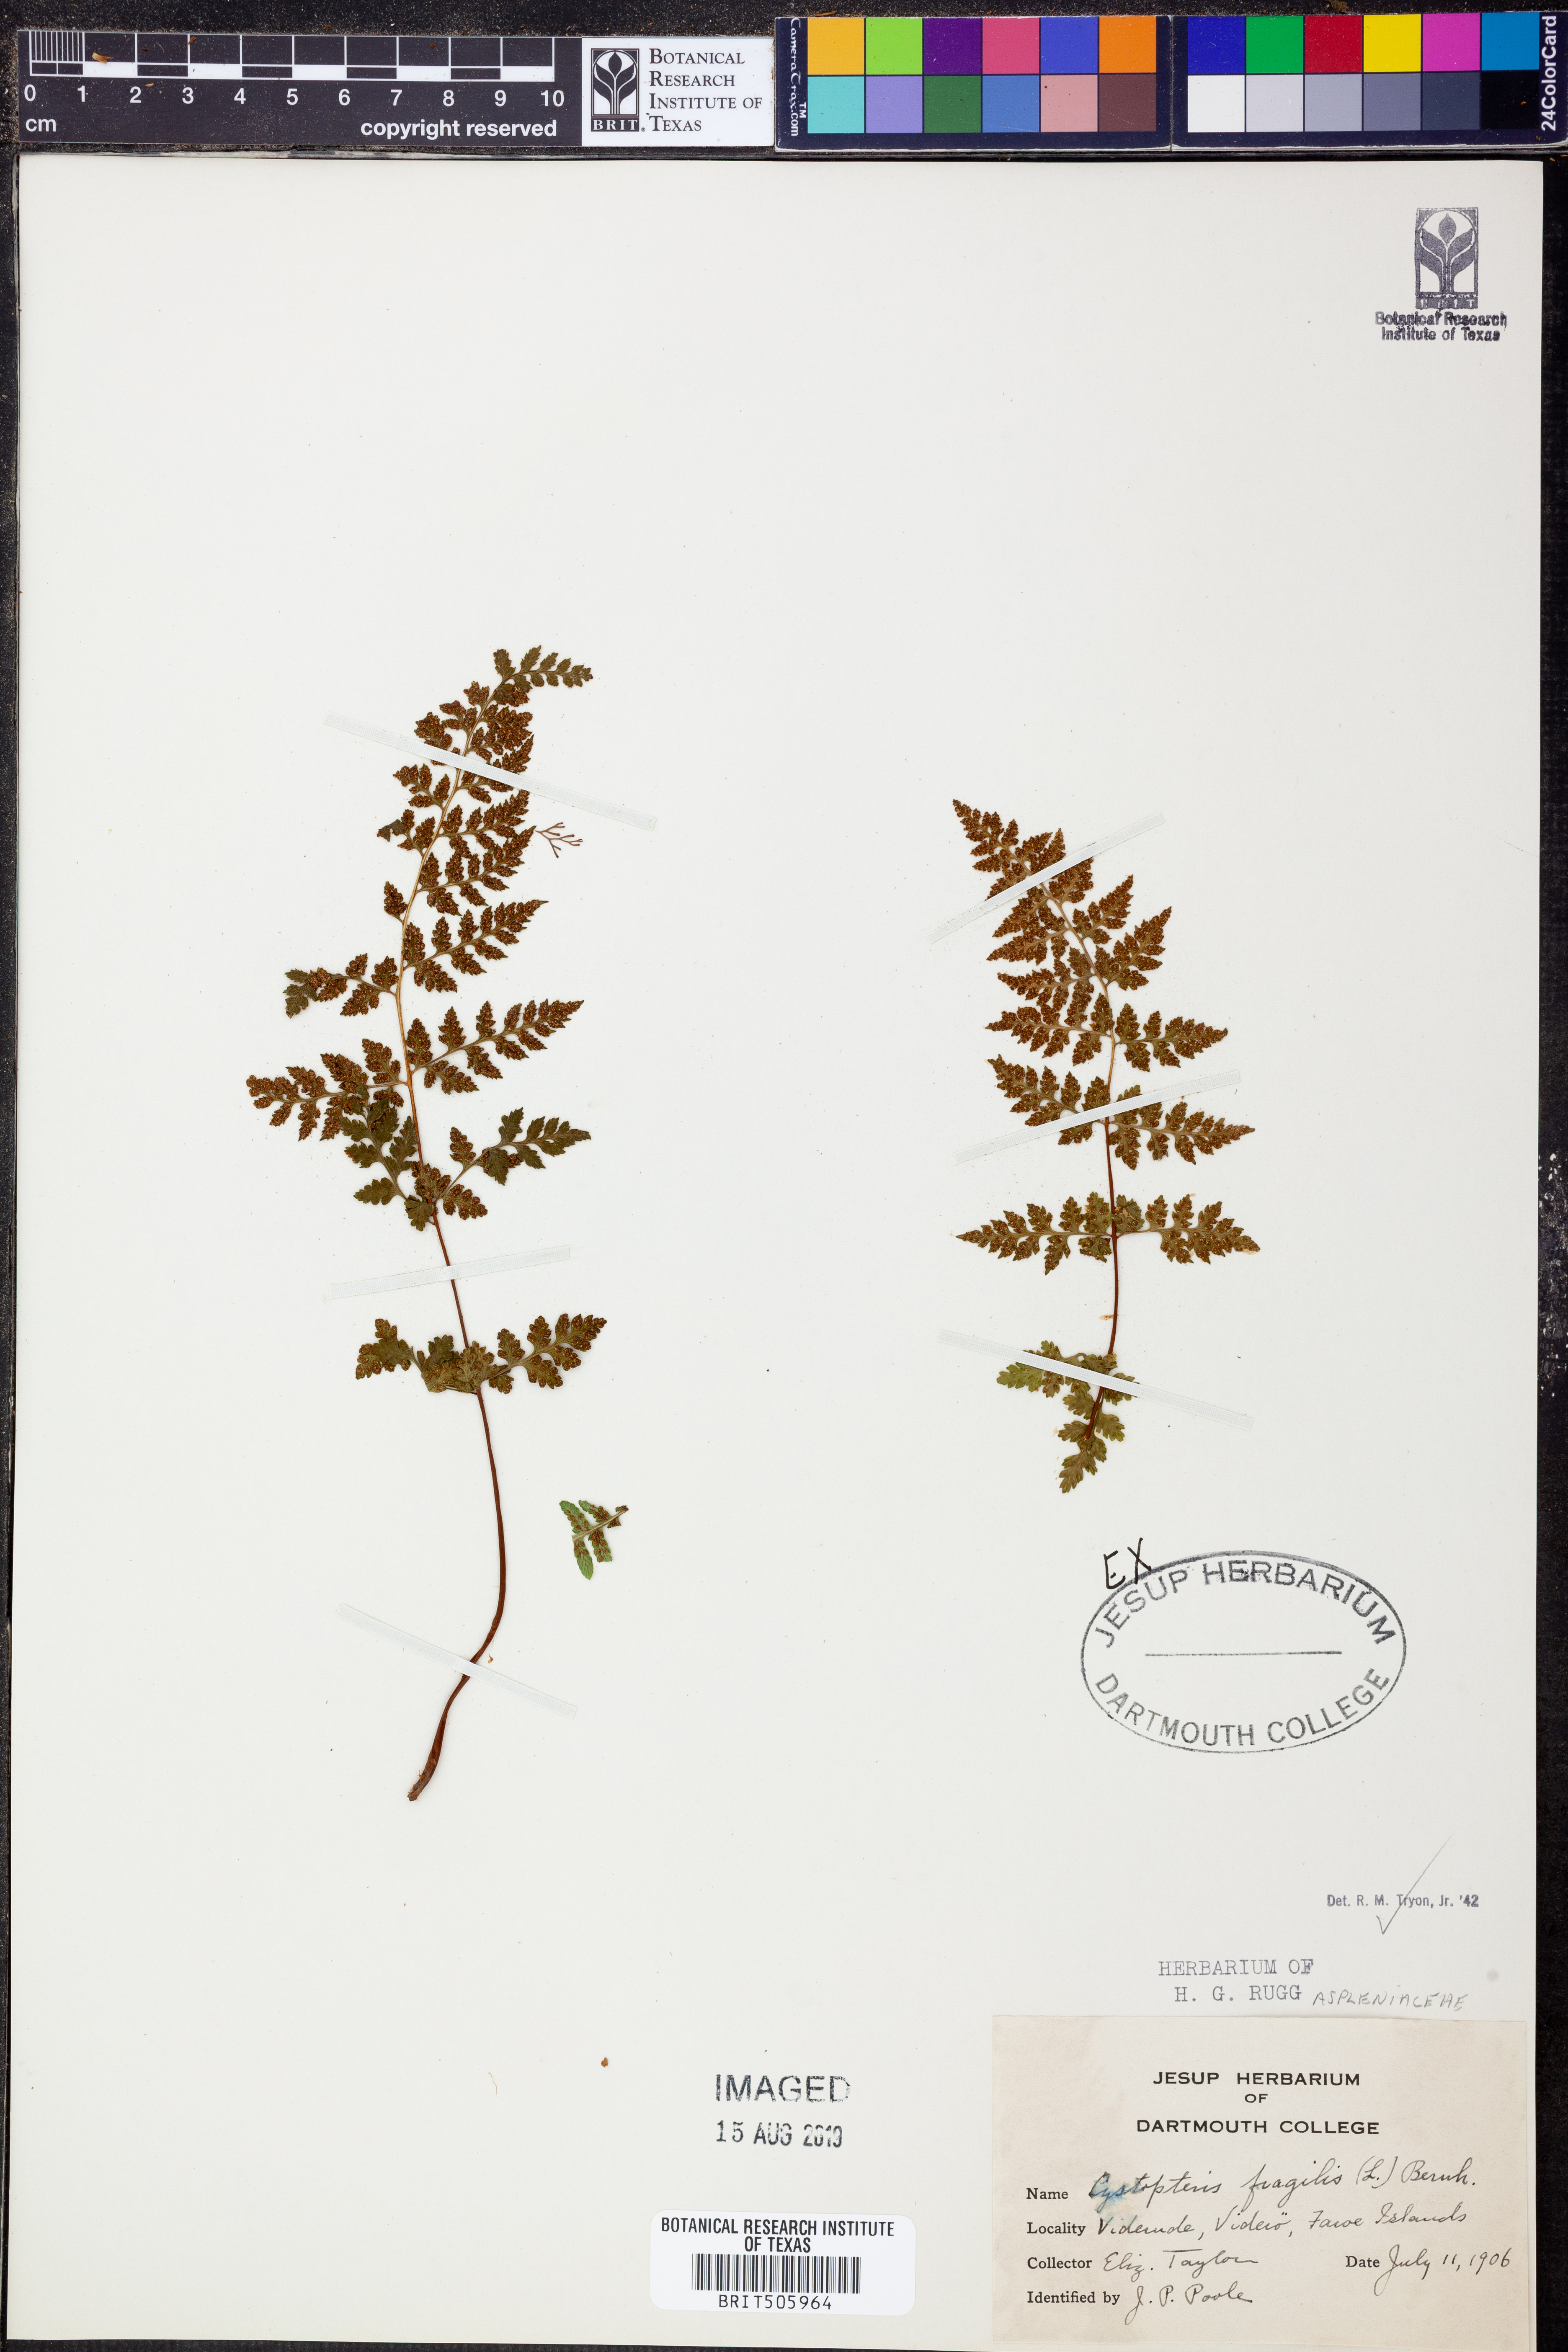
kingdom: Plantae
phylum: Tracheophyta
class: Polypodiopsida
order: Polypodiales
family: Cystopteridaceae
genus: Cystopteris
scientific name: Cystopteris fragilis
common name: Brittle bladder fern
